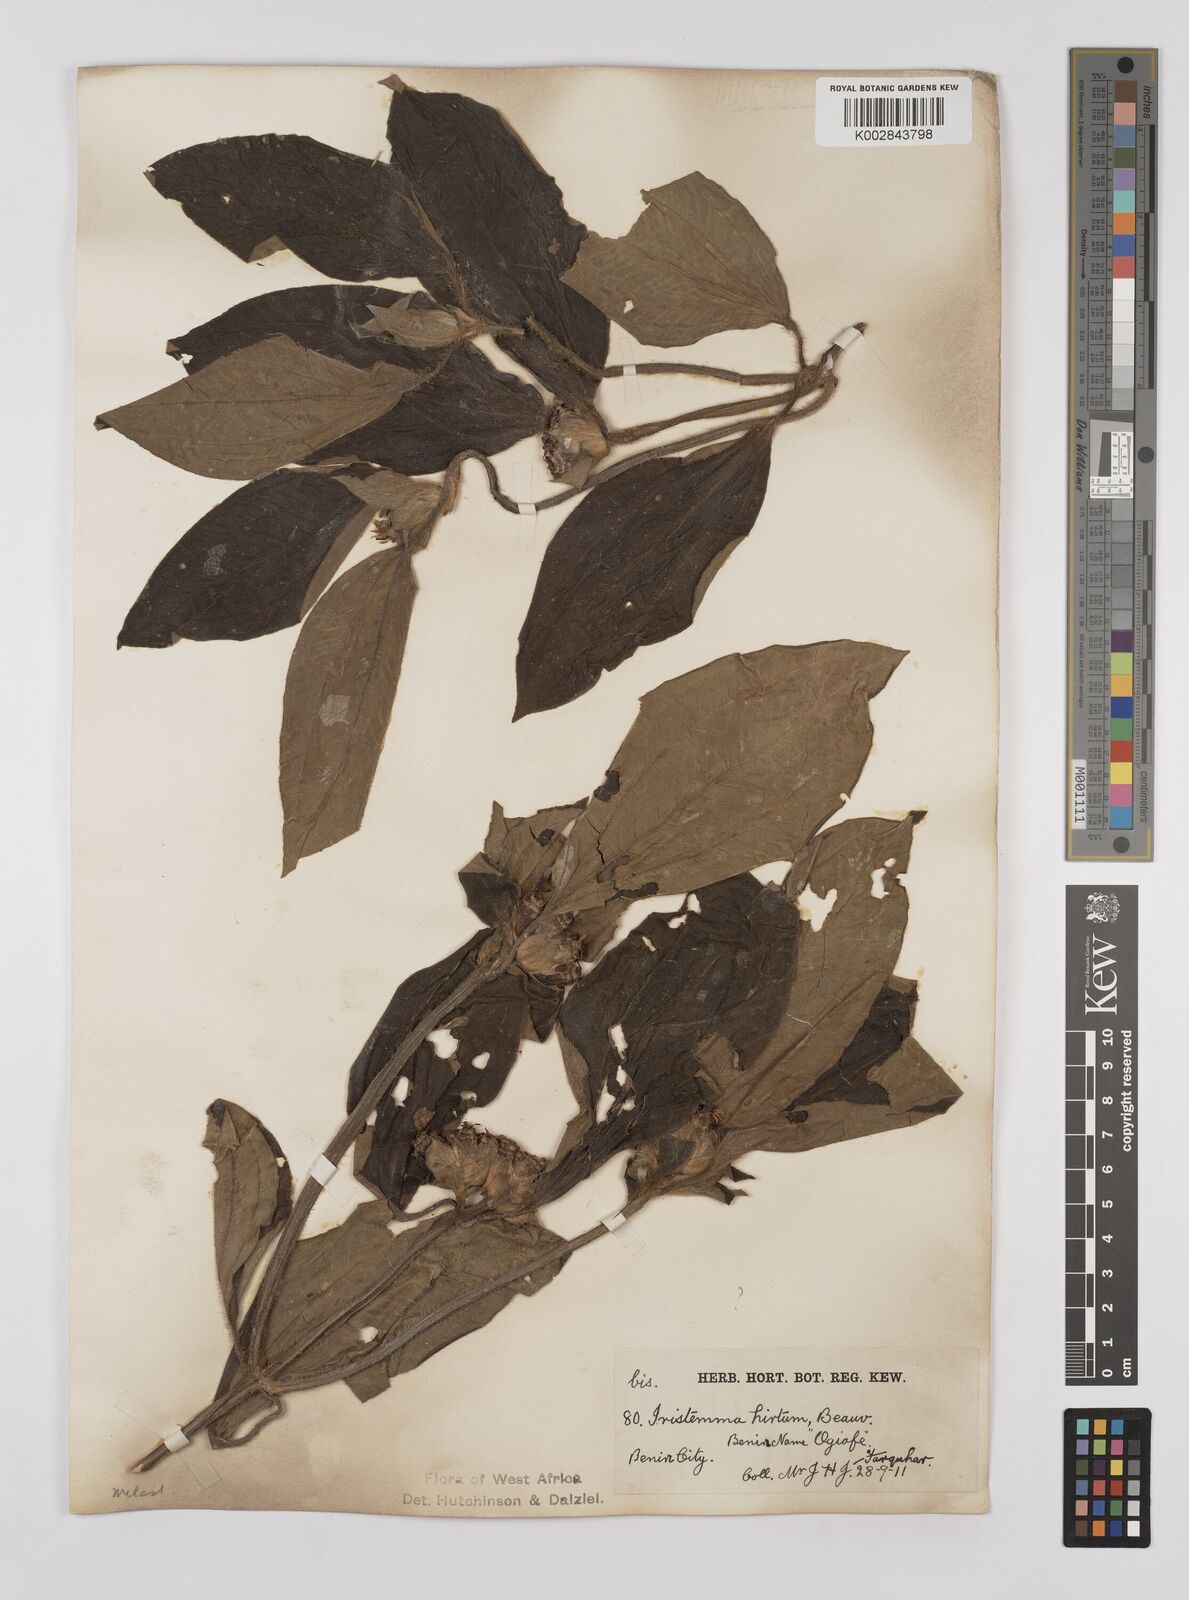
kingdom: Plantae
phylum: Tracheophyta
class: Magnoliopsida
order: Myrtales
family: Melastomataceae
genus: Tristemma
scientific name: Tristemma hirtum
